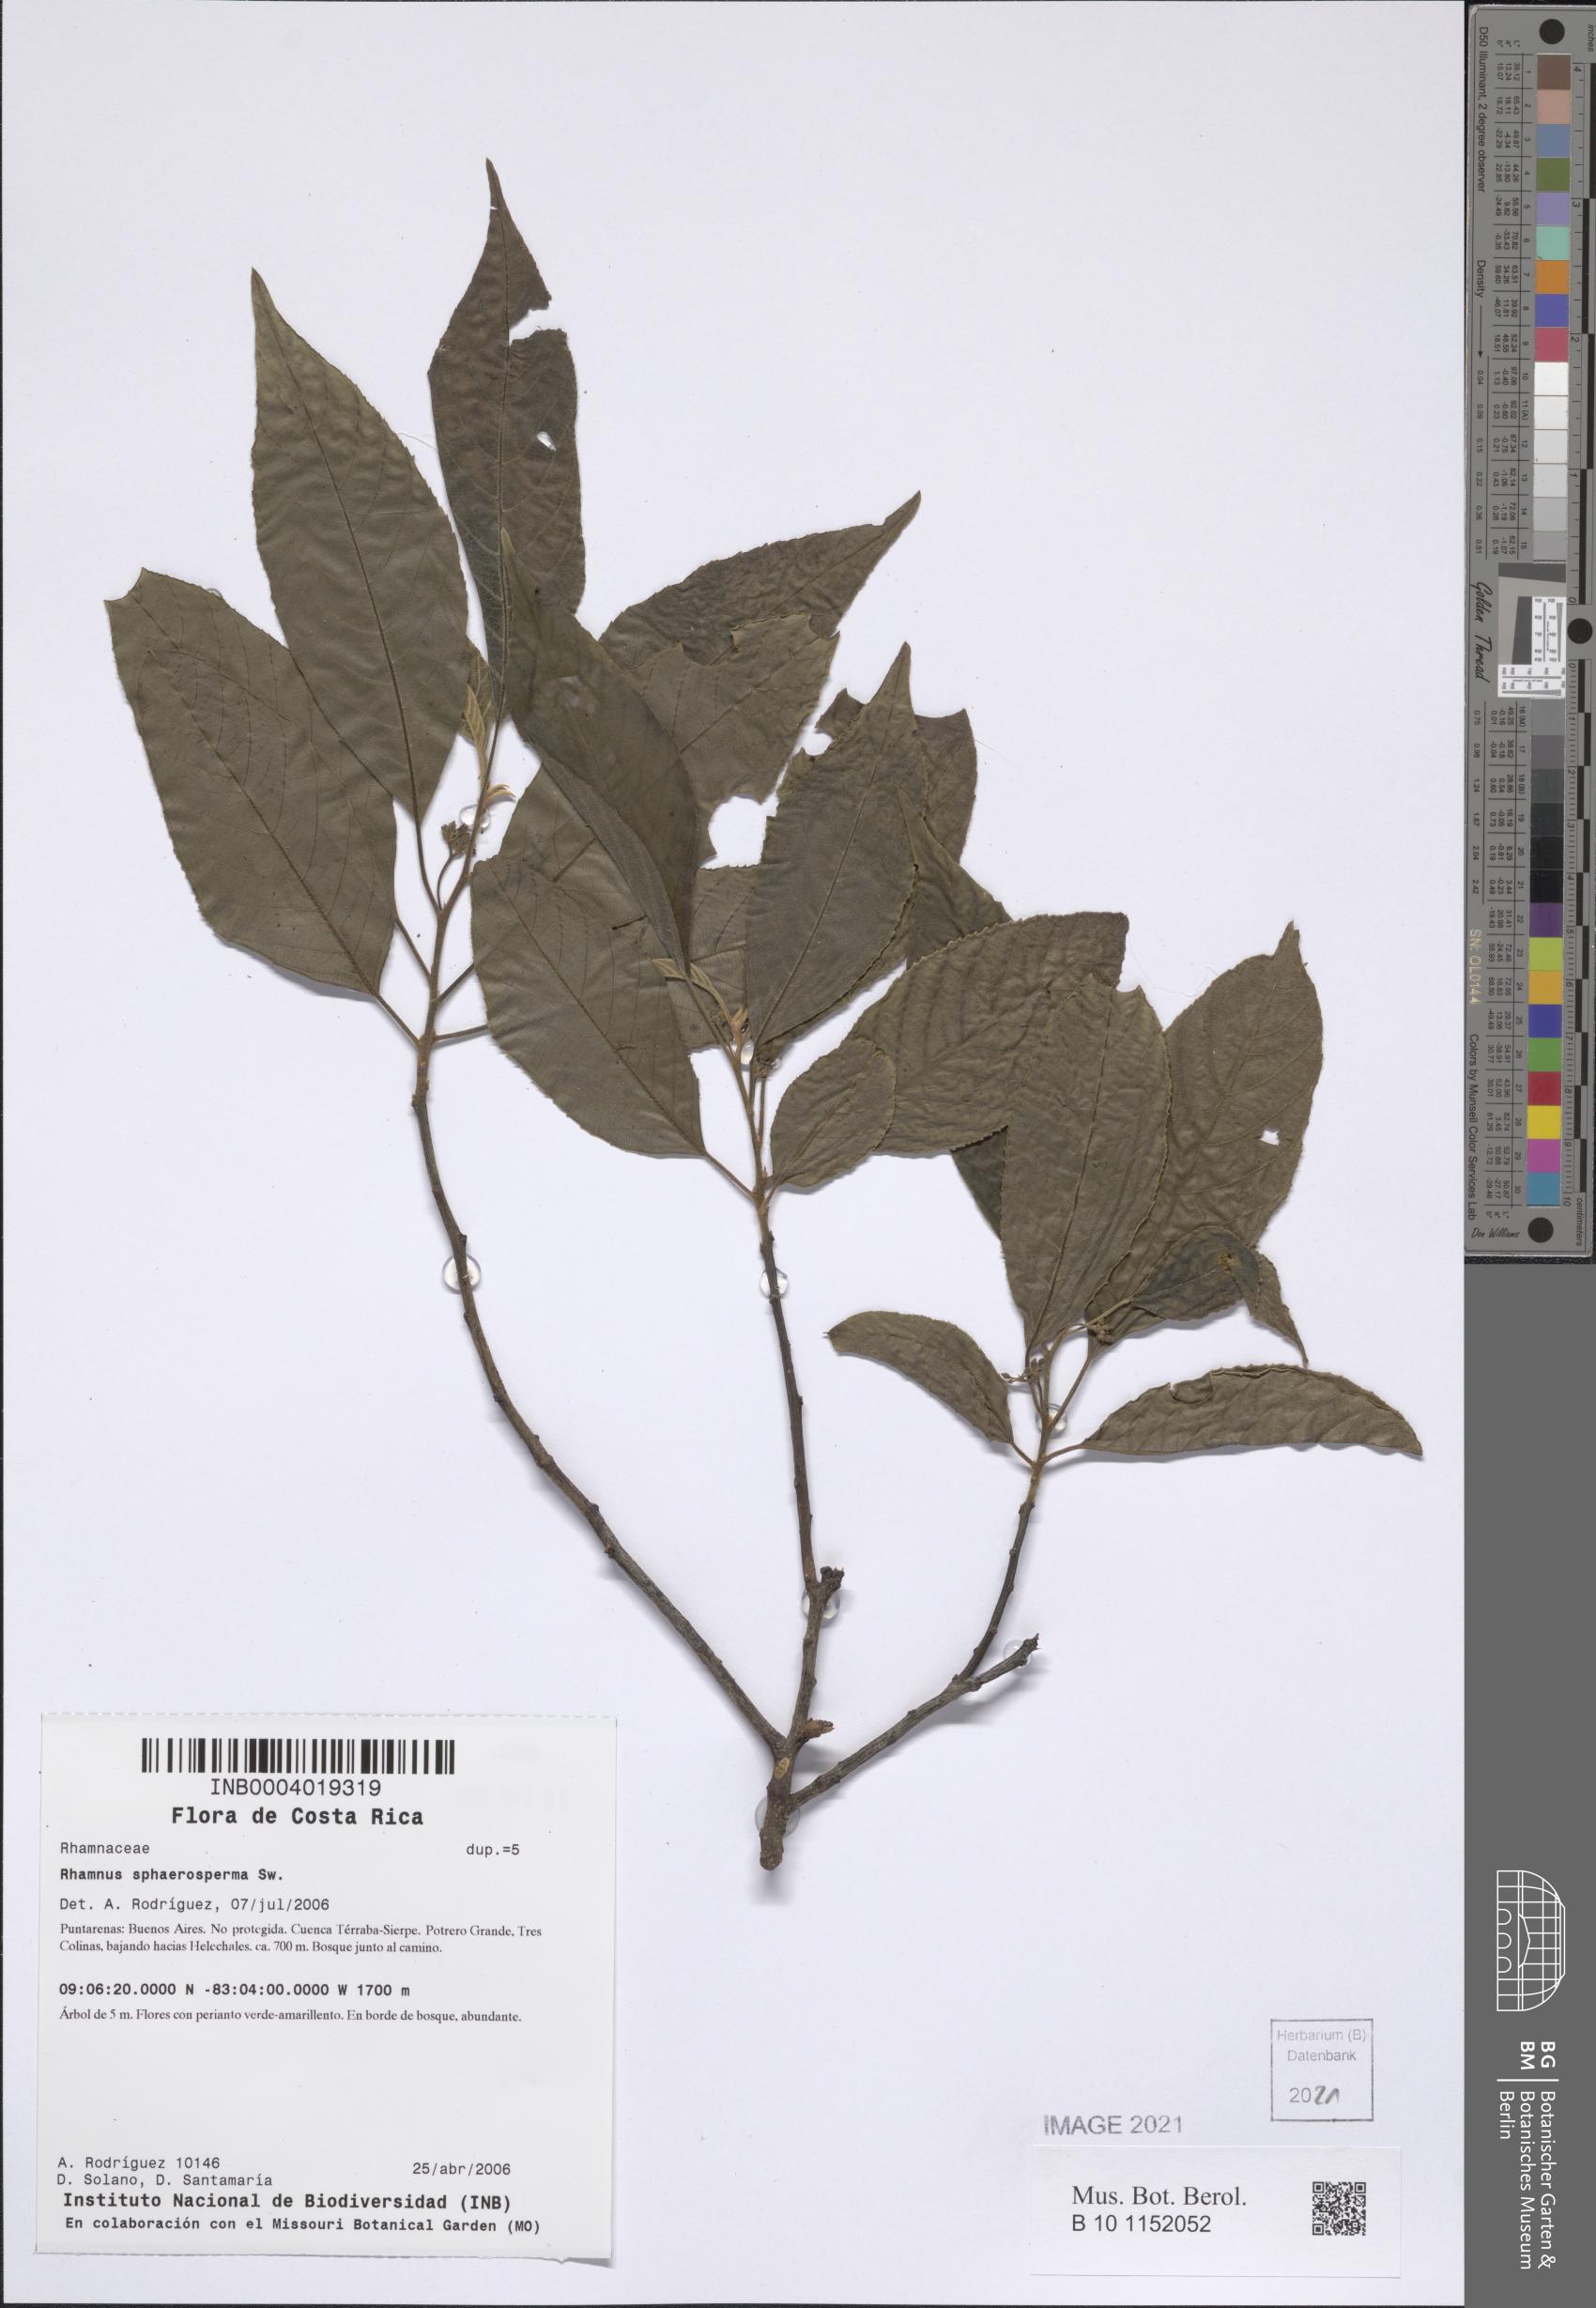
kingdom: Plantae
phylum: Tracheophyta
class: Magnoliopsida
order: Rosales
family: Rhamnaceae
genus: Frangula
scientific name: Frangula pendula
